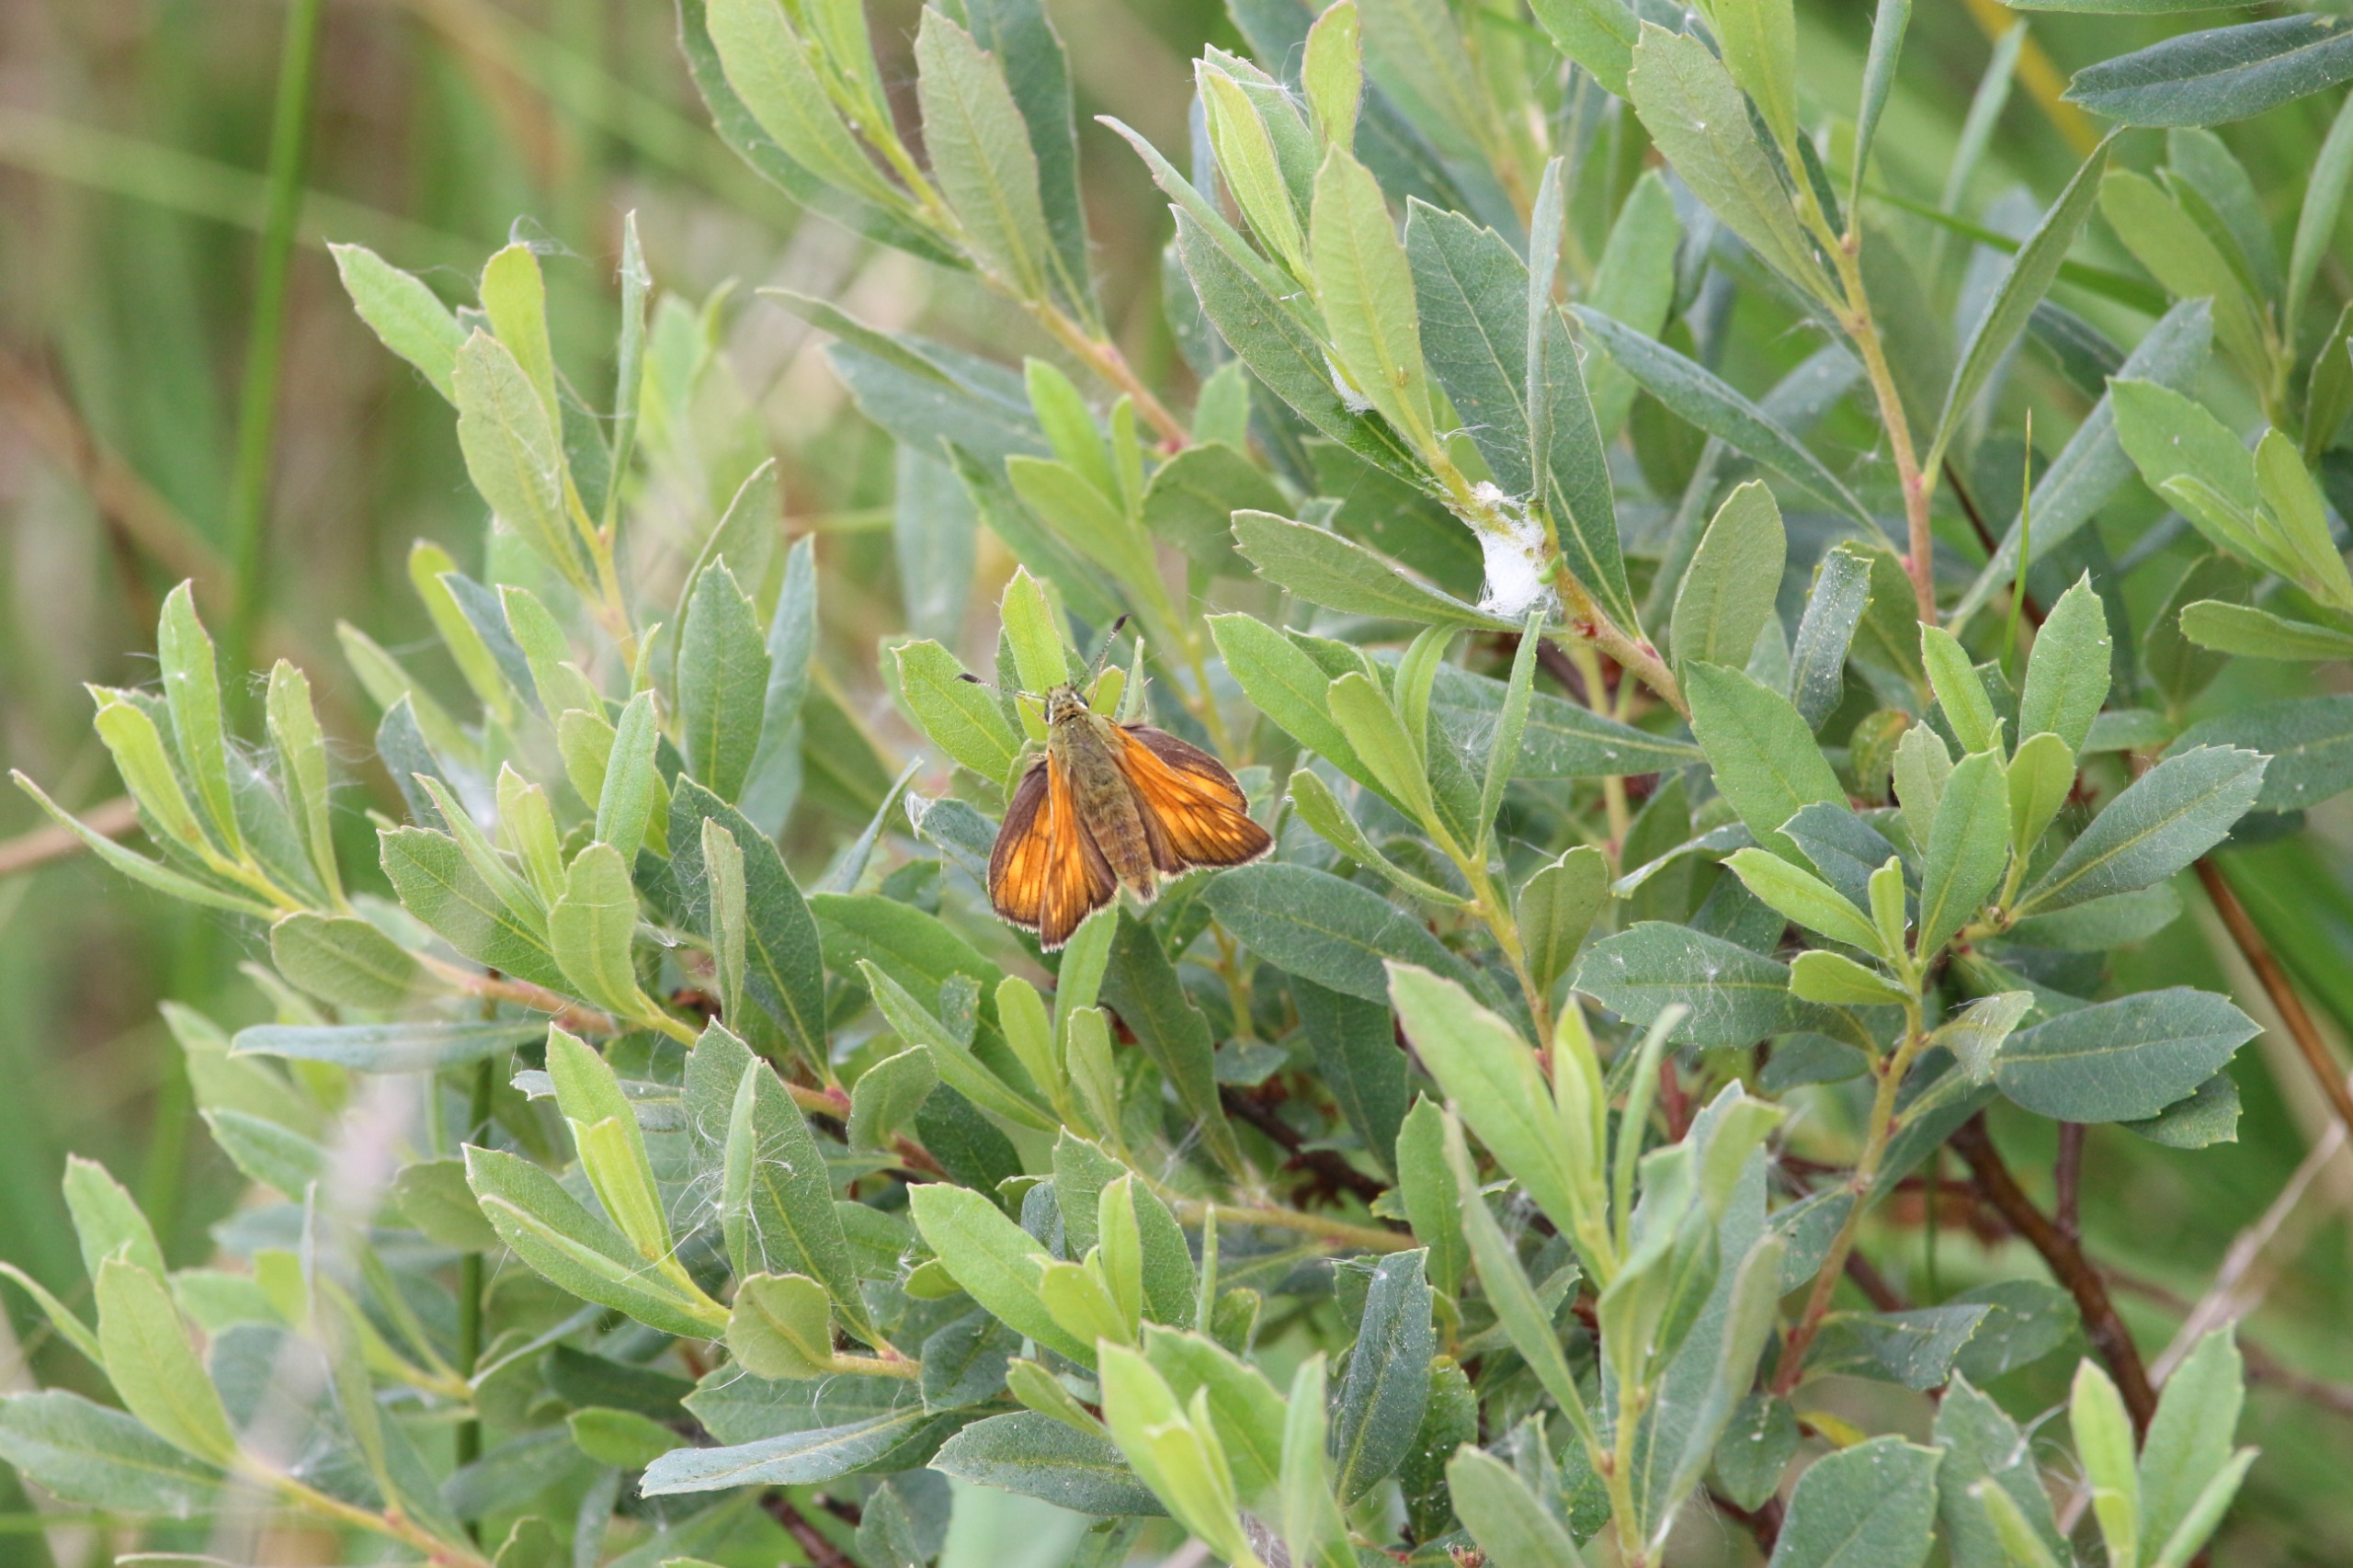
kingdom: Animalia
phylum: Arthropoda
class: Insecta
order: Lepidoptera
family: Hesperiidae
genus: Ochlodes
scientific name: Ochlodes venata
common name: Stor bredpande
